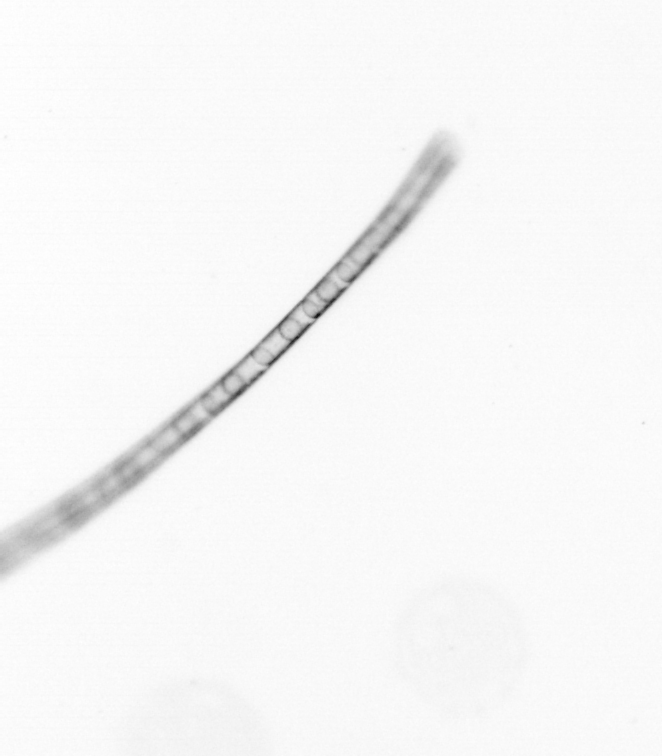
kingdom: Chromista
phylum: Ochrophyta
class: Bacillariophyceae
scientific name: Bacillariophyceae
